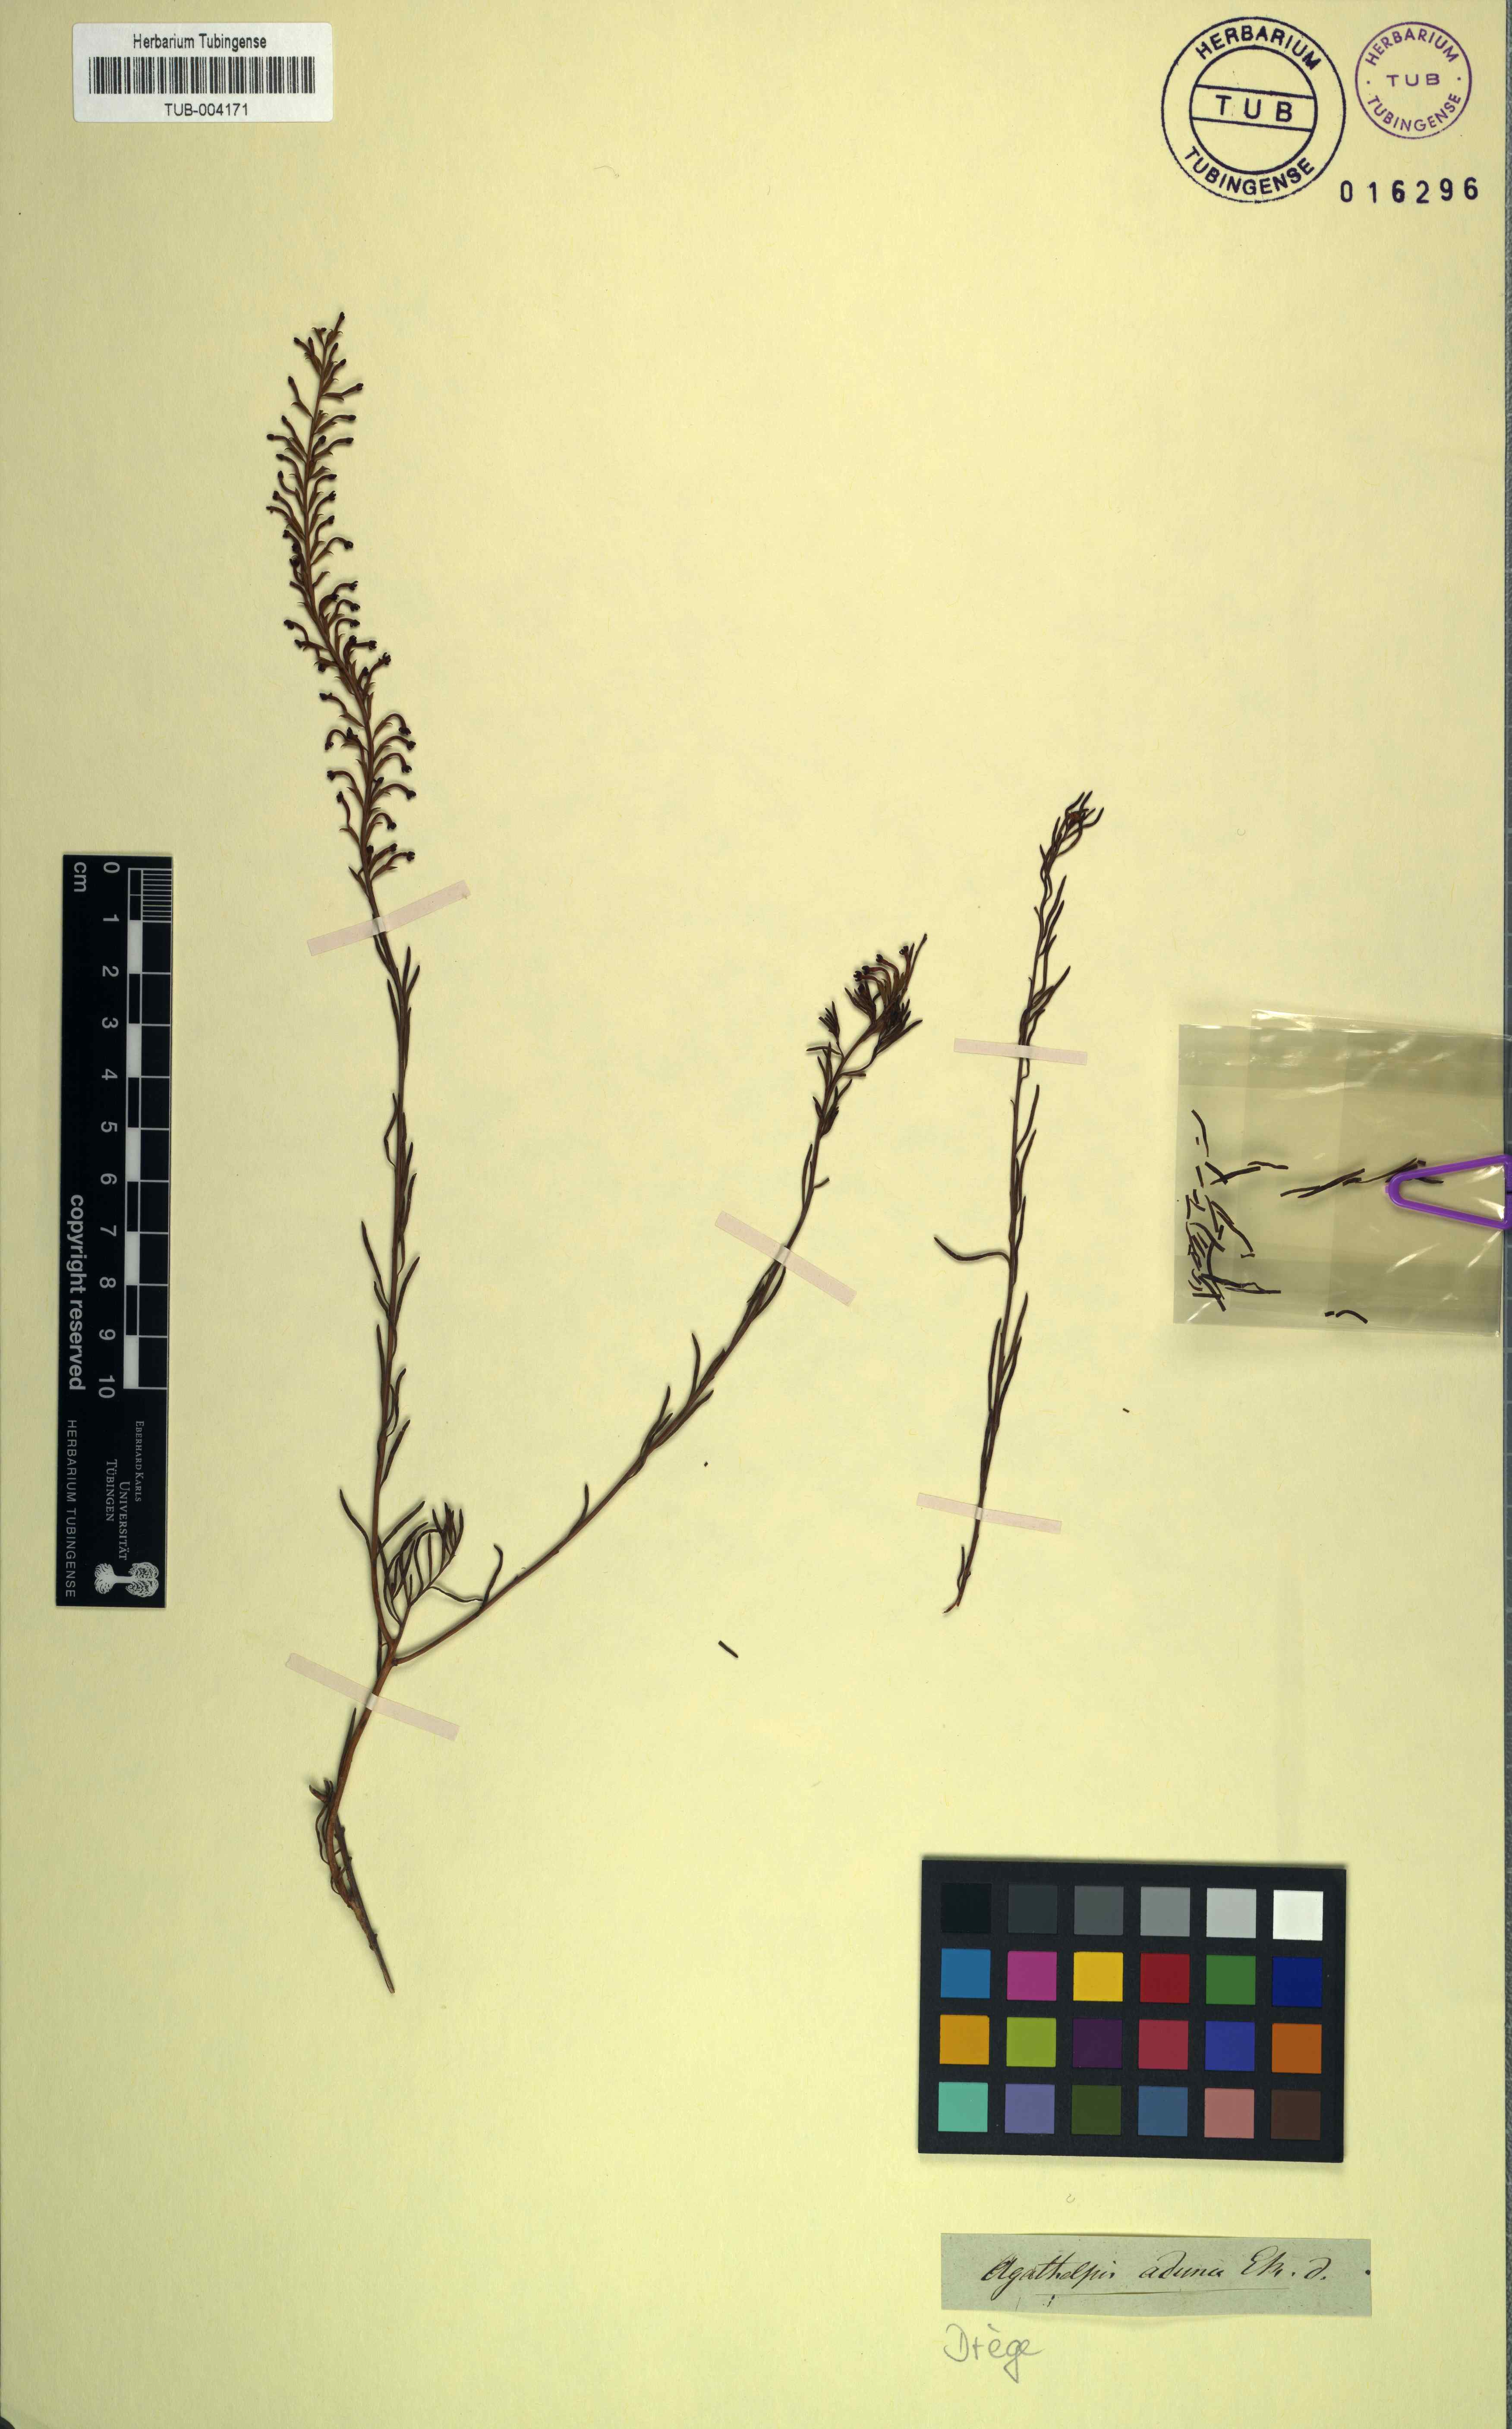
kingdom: Plantae
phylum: Tracheophyta
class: Magnoliopsida
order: Lamiales
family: Scrophulariaceae
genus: Microdon
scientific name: Microdon dubius
